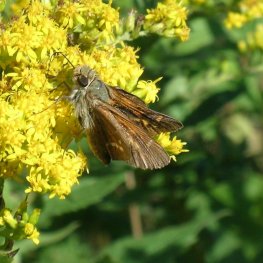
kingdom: Animalia
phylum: Arthropoda
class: Insecta
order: Lepidoptera
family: Hesperiidae
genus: Hesperia
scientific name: Hesperia leonardus
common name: Leonard's Skipper
